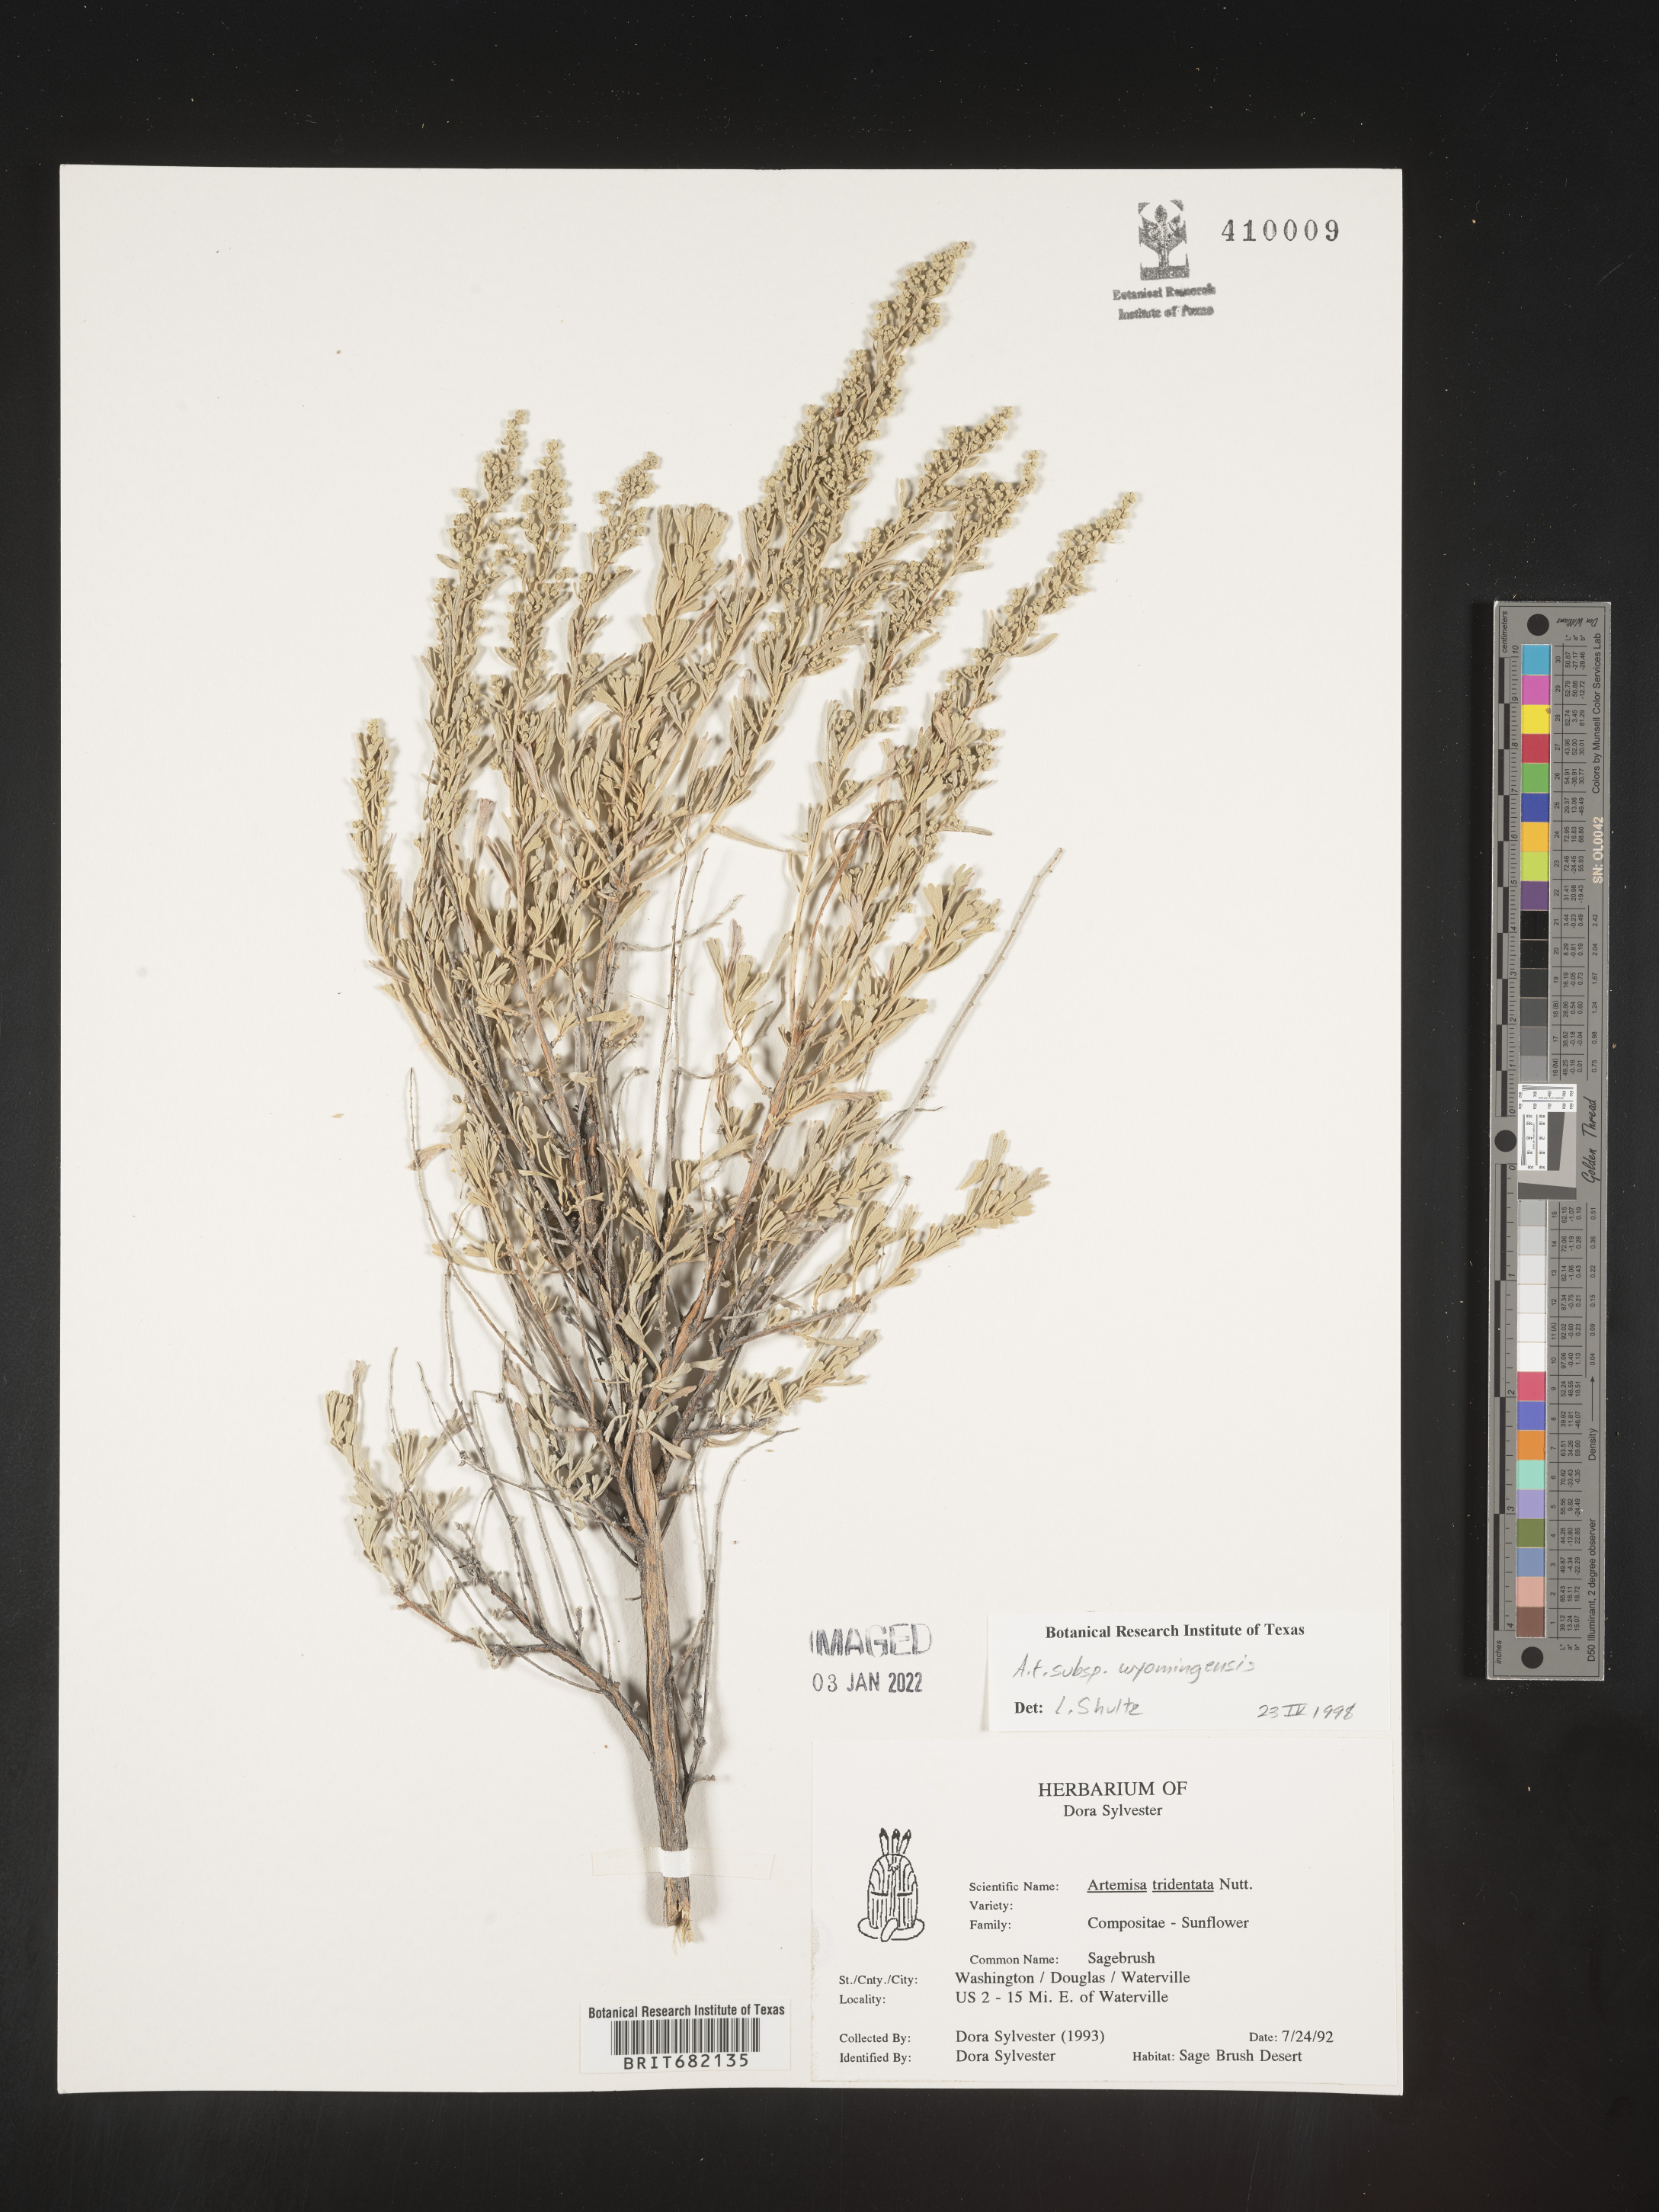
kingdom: Plantae
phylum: Tracheophyta
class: Magnoliopsida
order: Asterales
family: Asteraceae
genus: Artemisia
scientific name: Artemisia tridentata
